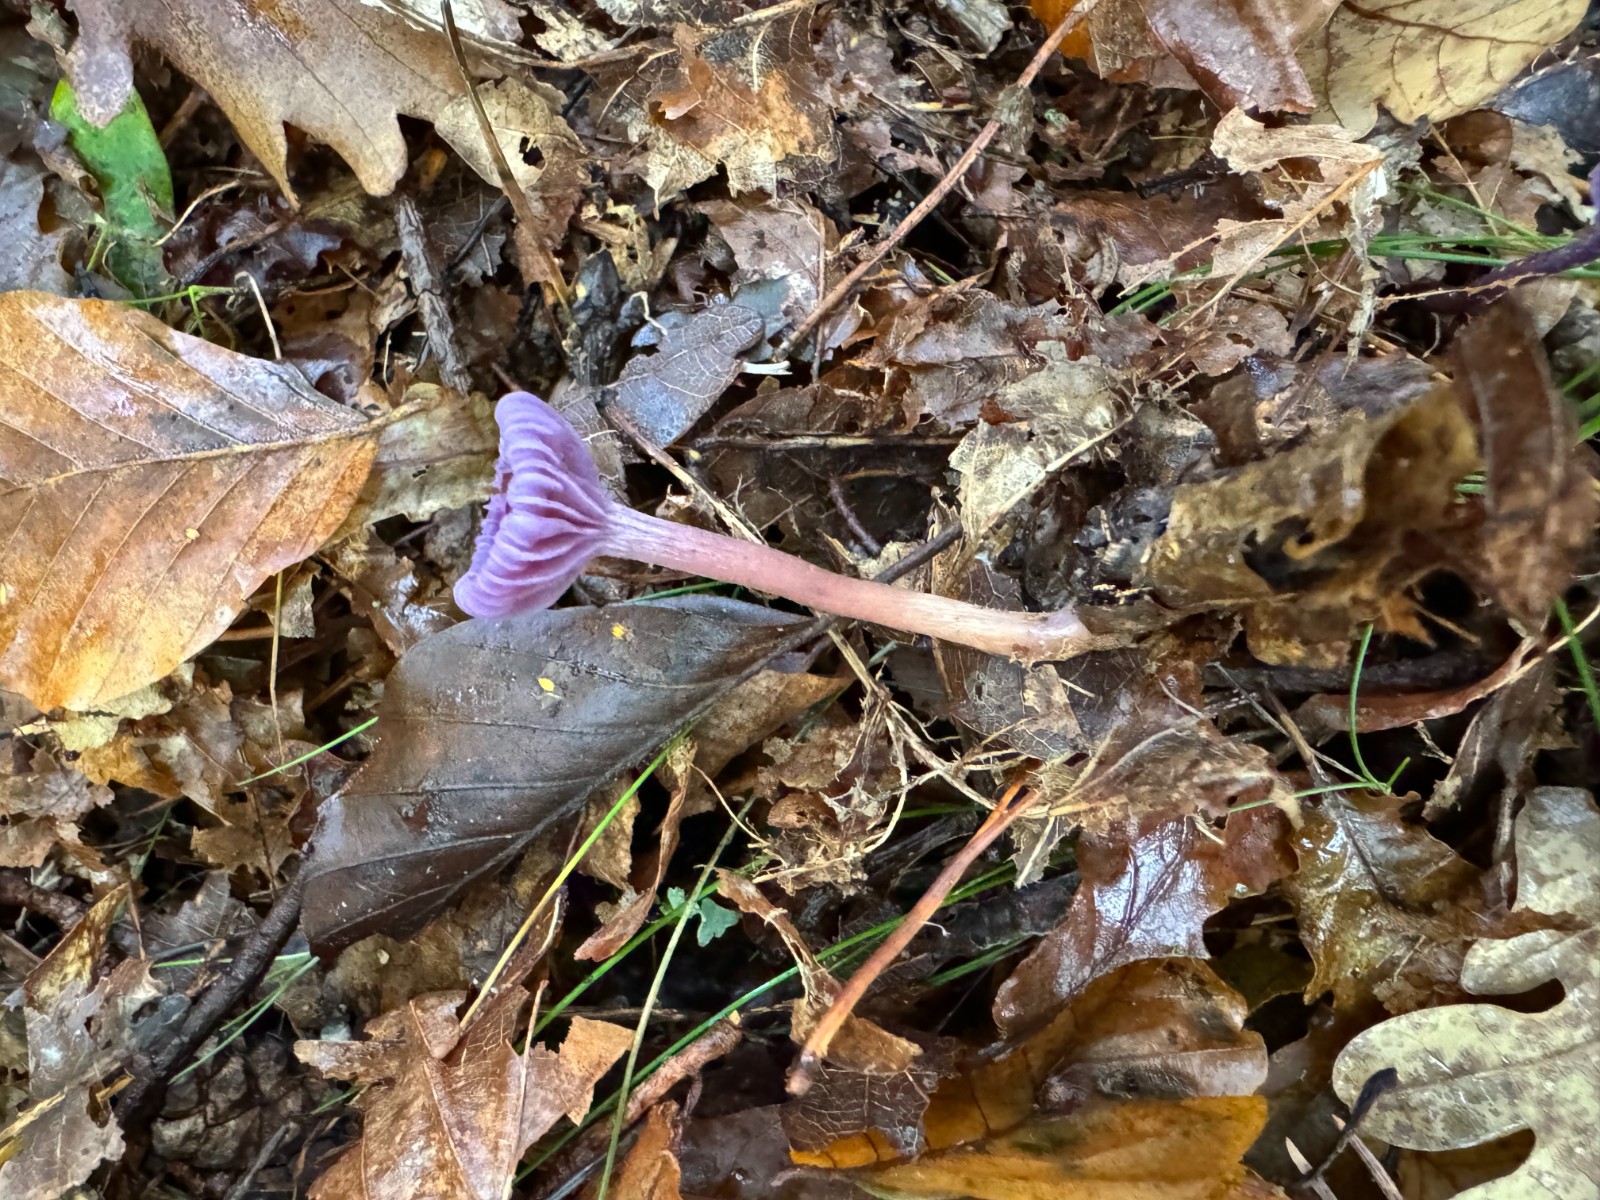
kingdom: Fungi
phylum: Basidiomycota
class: Agaricomycetes
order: Agaricales
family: Hydnangiaceae
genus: Laccaria
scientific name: Laccaria amethystina
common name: violet ametysthat
